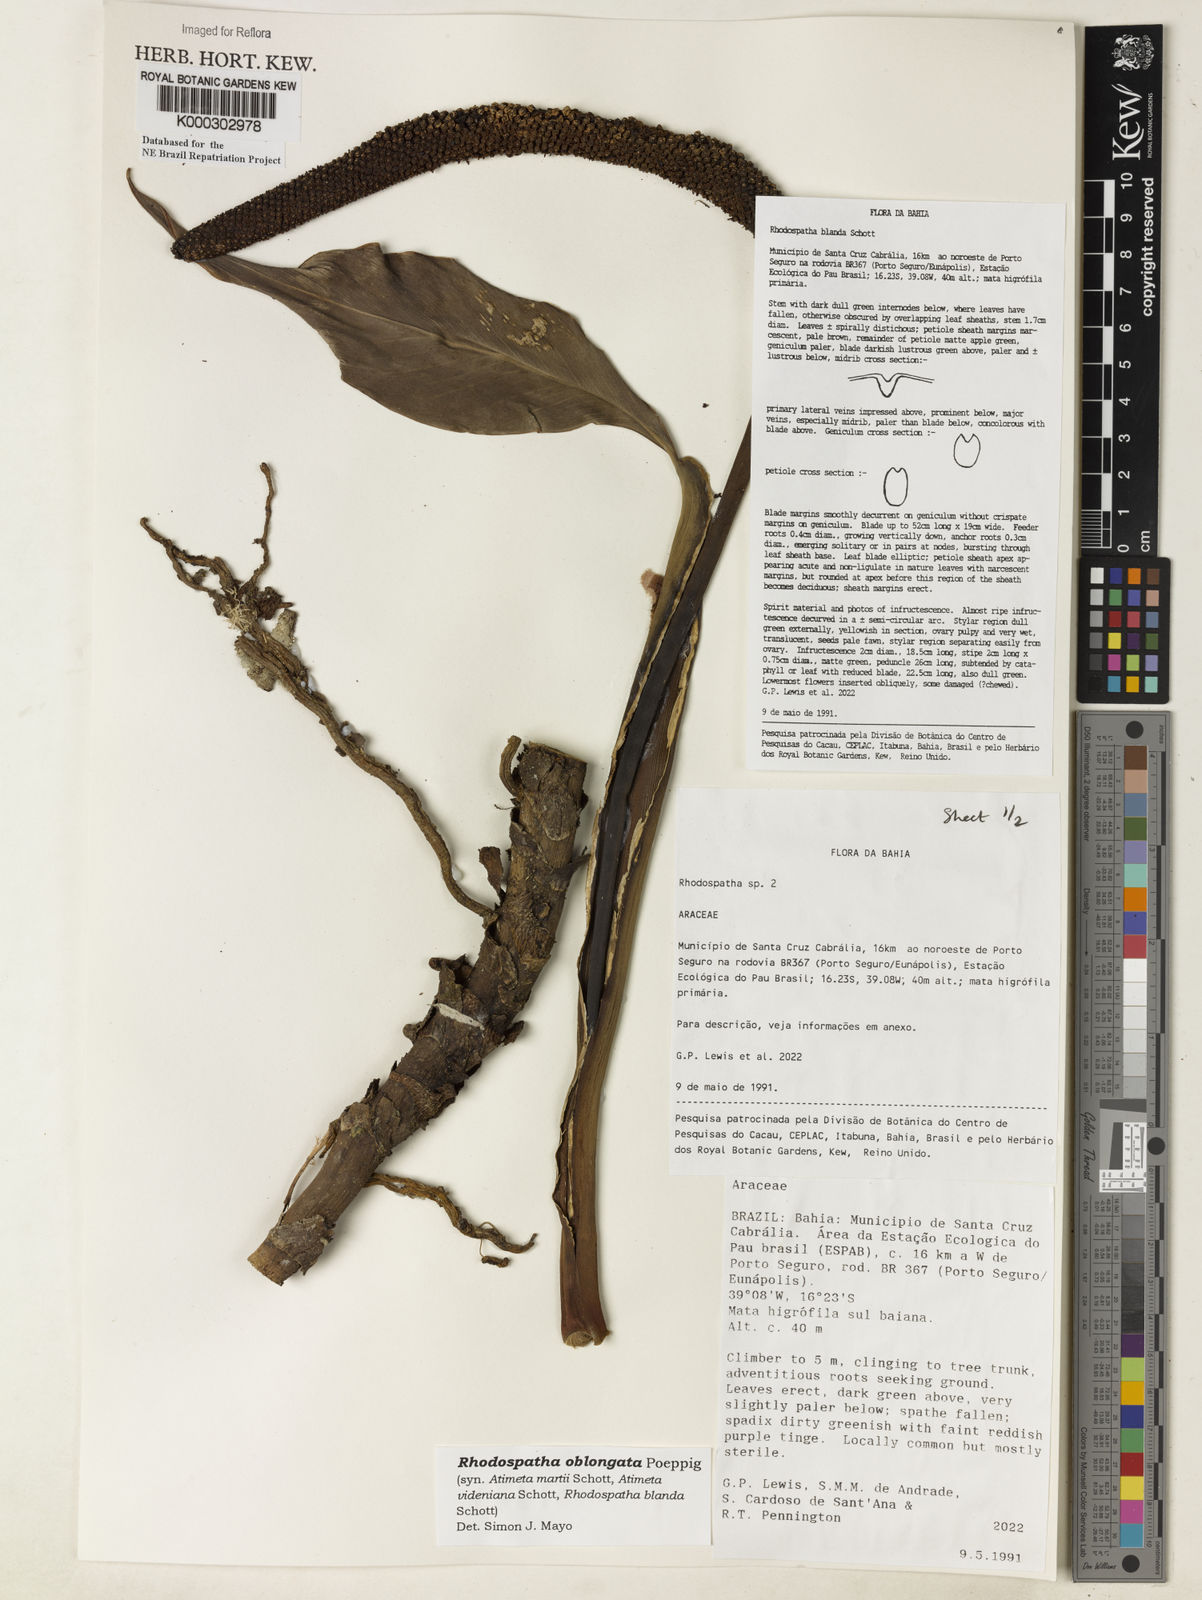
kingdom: Plantae
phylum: Tracheophyta
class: Liliopsida
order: Alismatales
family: Araceae
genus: Rhodospatha
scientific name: Rhodospatha oblongata
